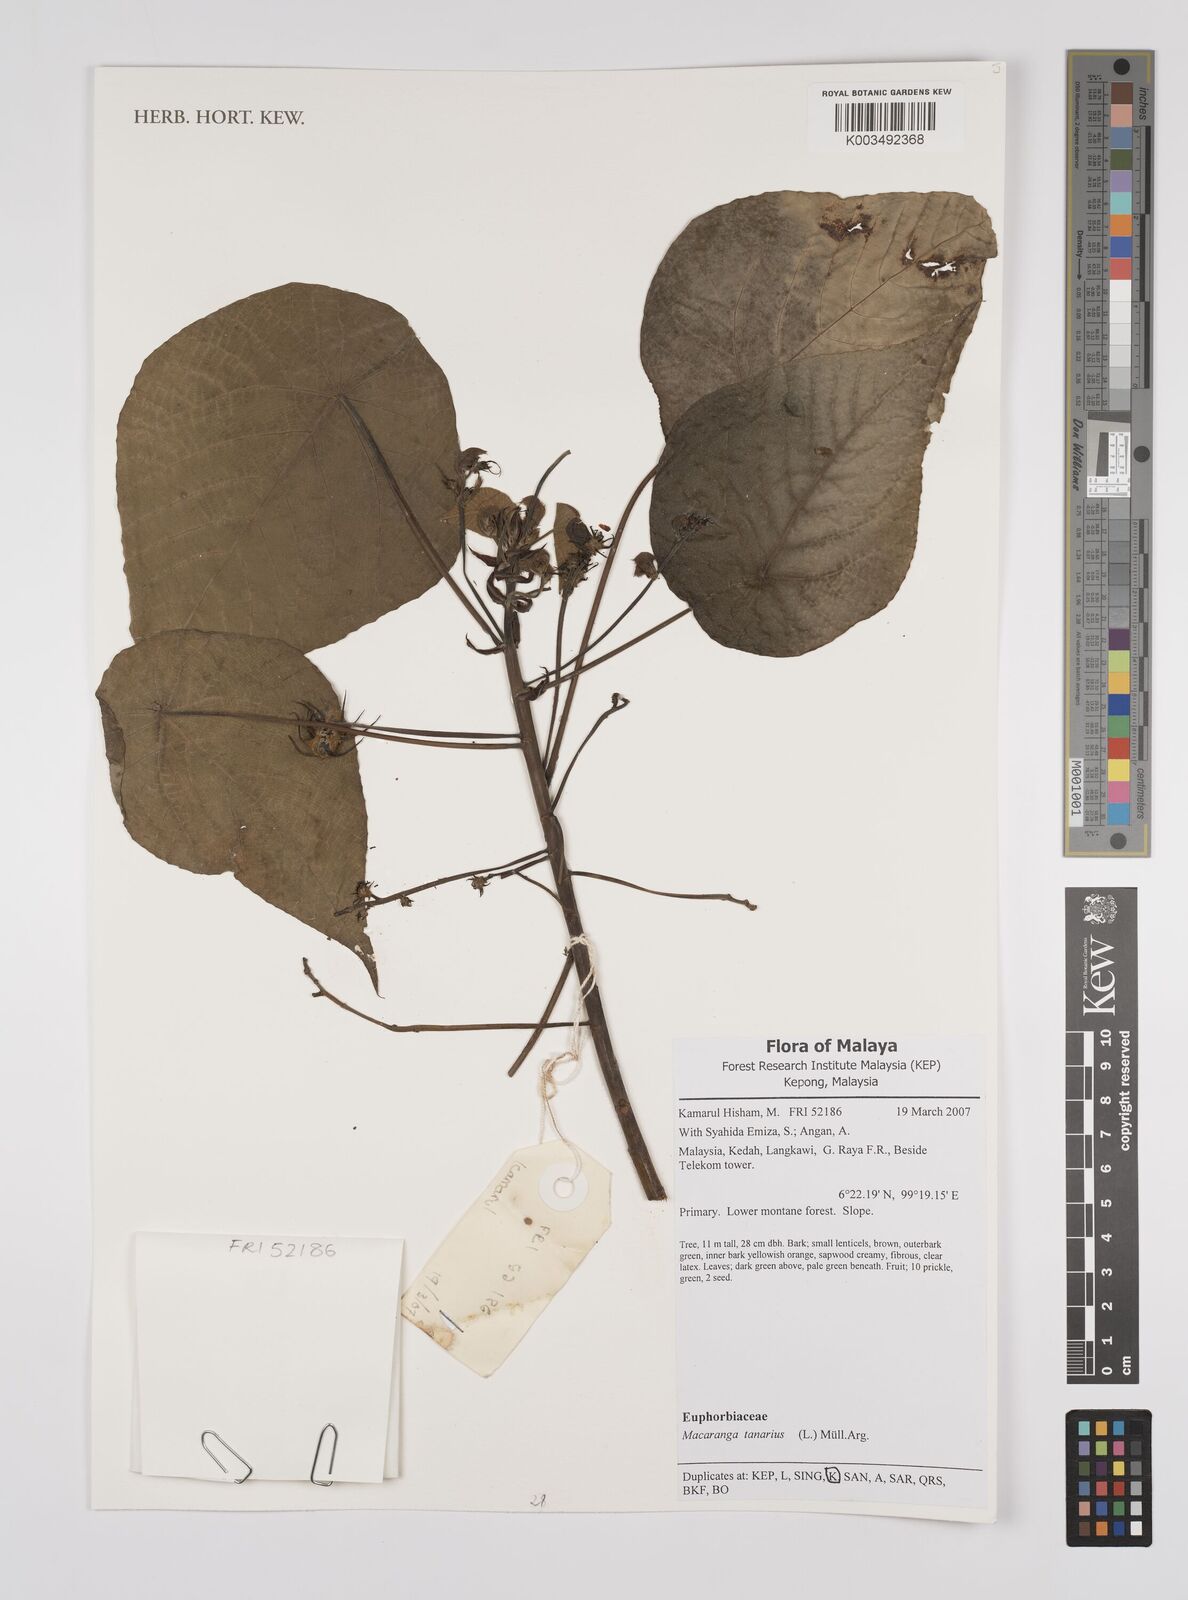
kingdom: Plantae
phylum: Tracheophyta
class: Magnoliopsida
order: Malpighiales
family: Euphorbiaceae
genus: Macaranga
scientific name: Macaranga tanarius
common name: Parasol leaf tree
